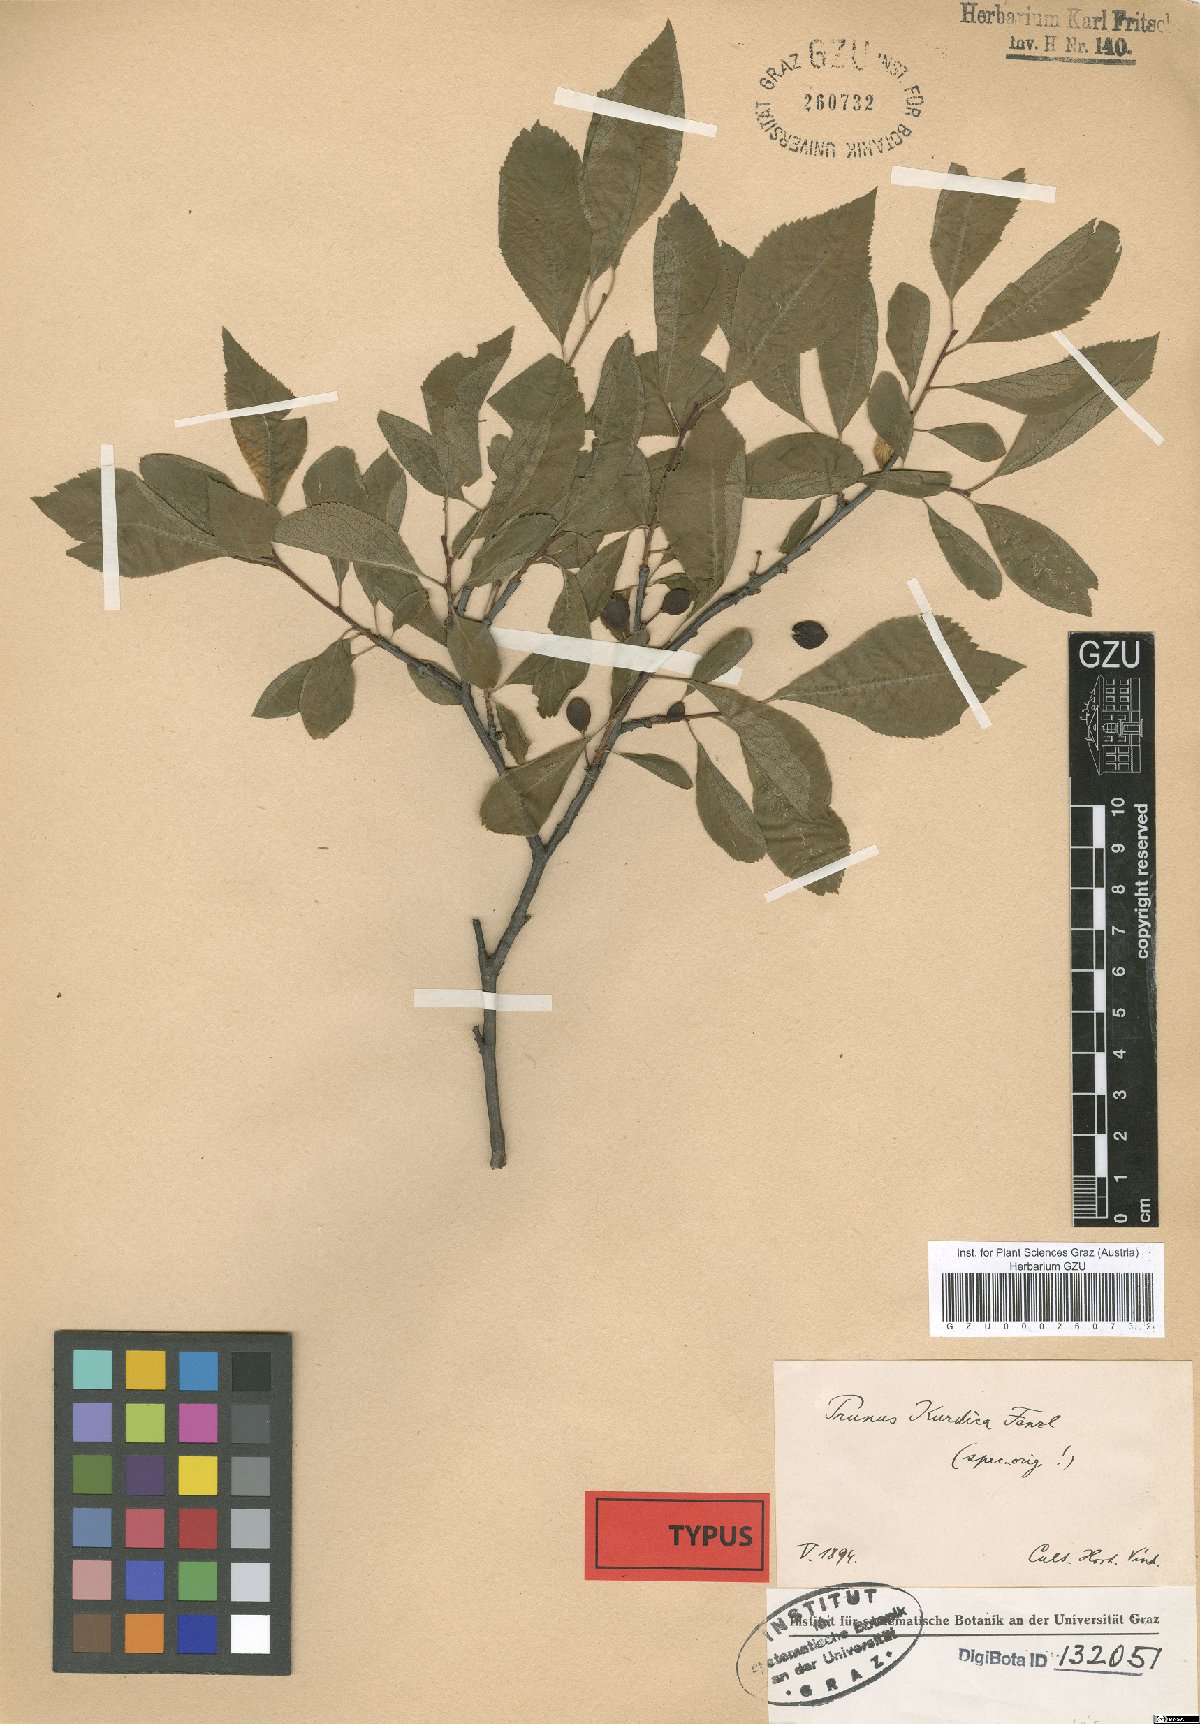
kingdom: Plantae
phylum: Tracheophyta
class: Magnoliopsida
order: Rosales
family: Rosaceae
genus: Prunus
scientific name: Prunus spinosa
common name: Blackthorn
